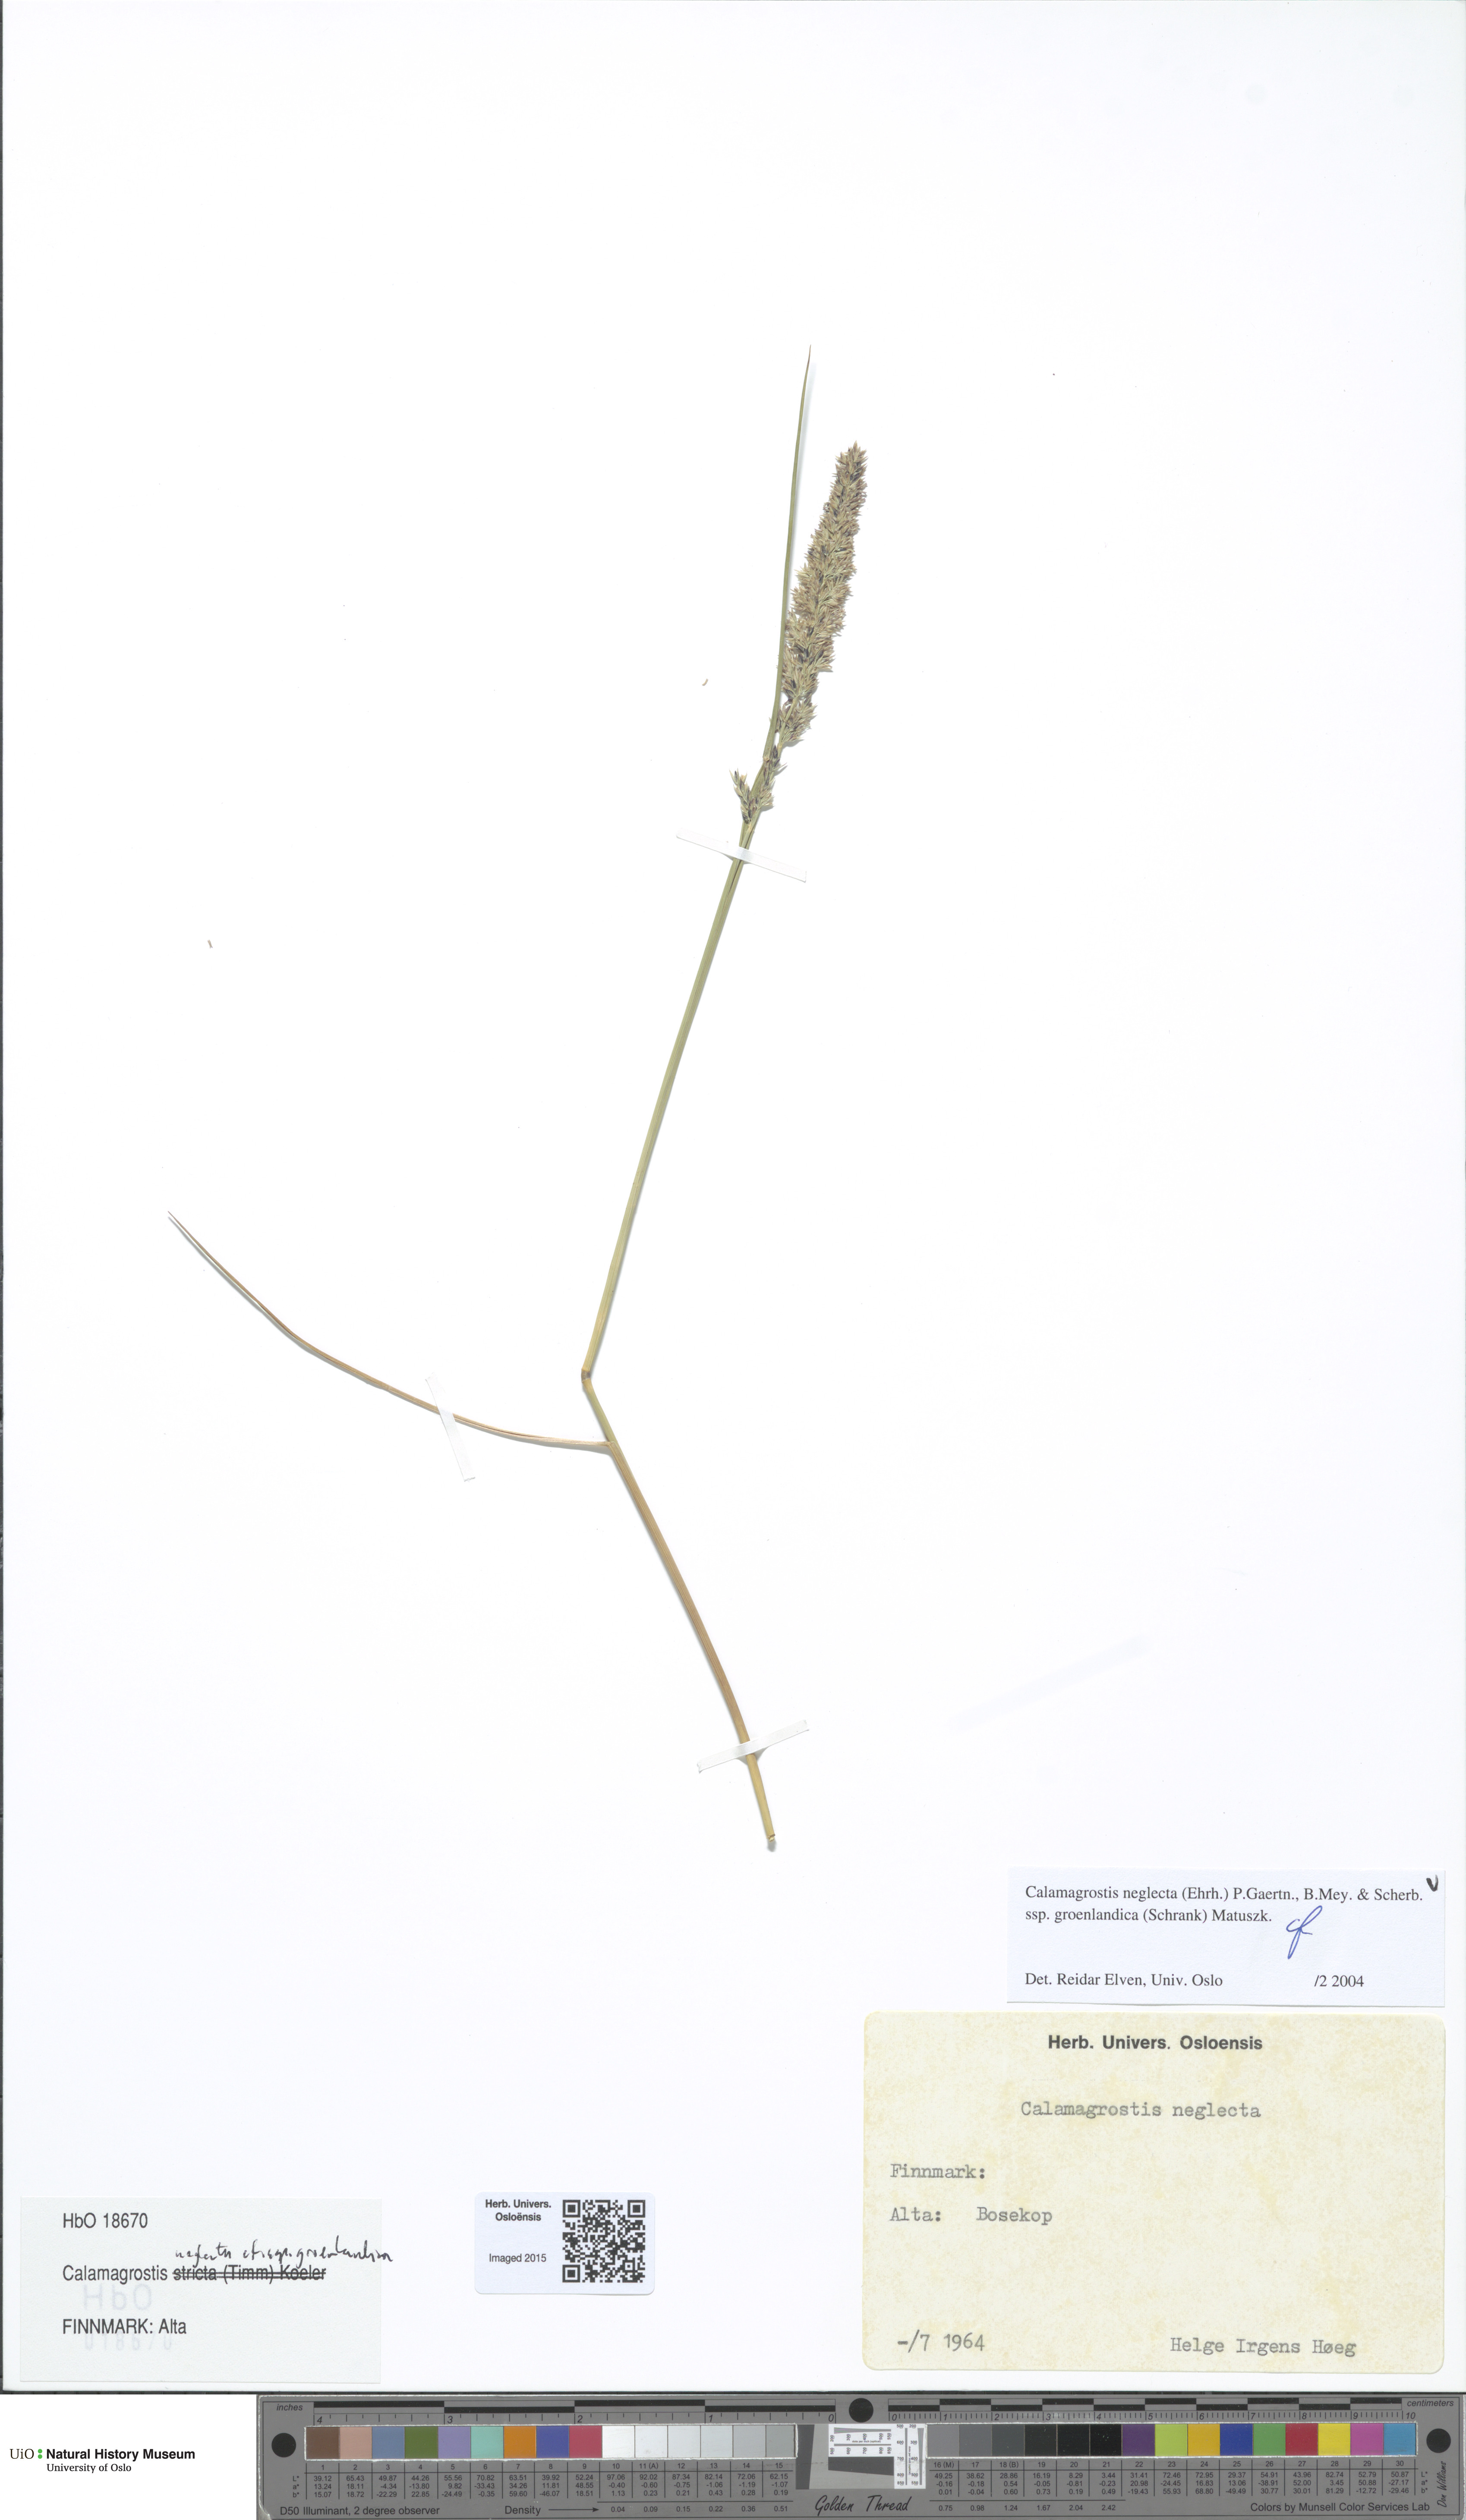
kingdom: Plantae
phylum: Tracheophyta
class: Liliopsida
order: Poales
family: Poaceae
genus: Calamagrostis
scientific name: Calamagrostis stricta
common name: Narrow small-reed
